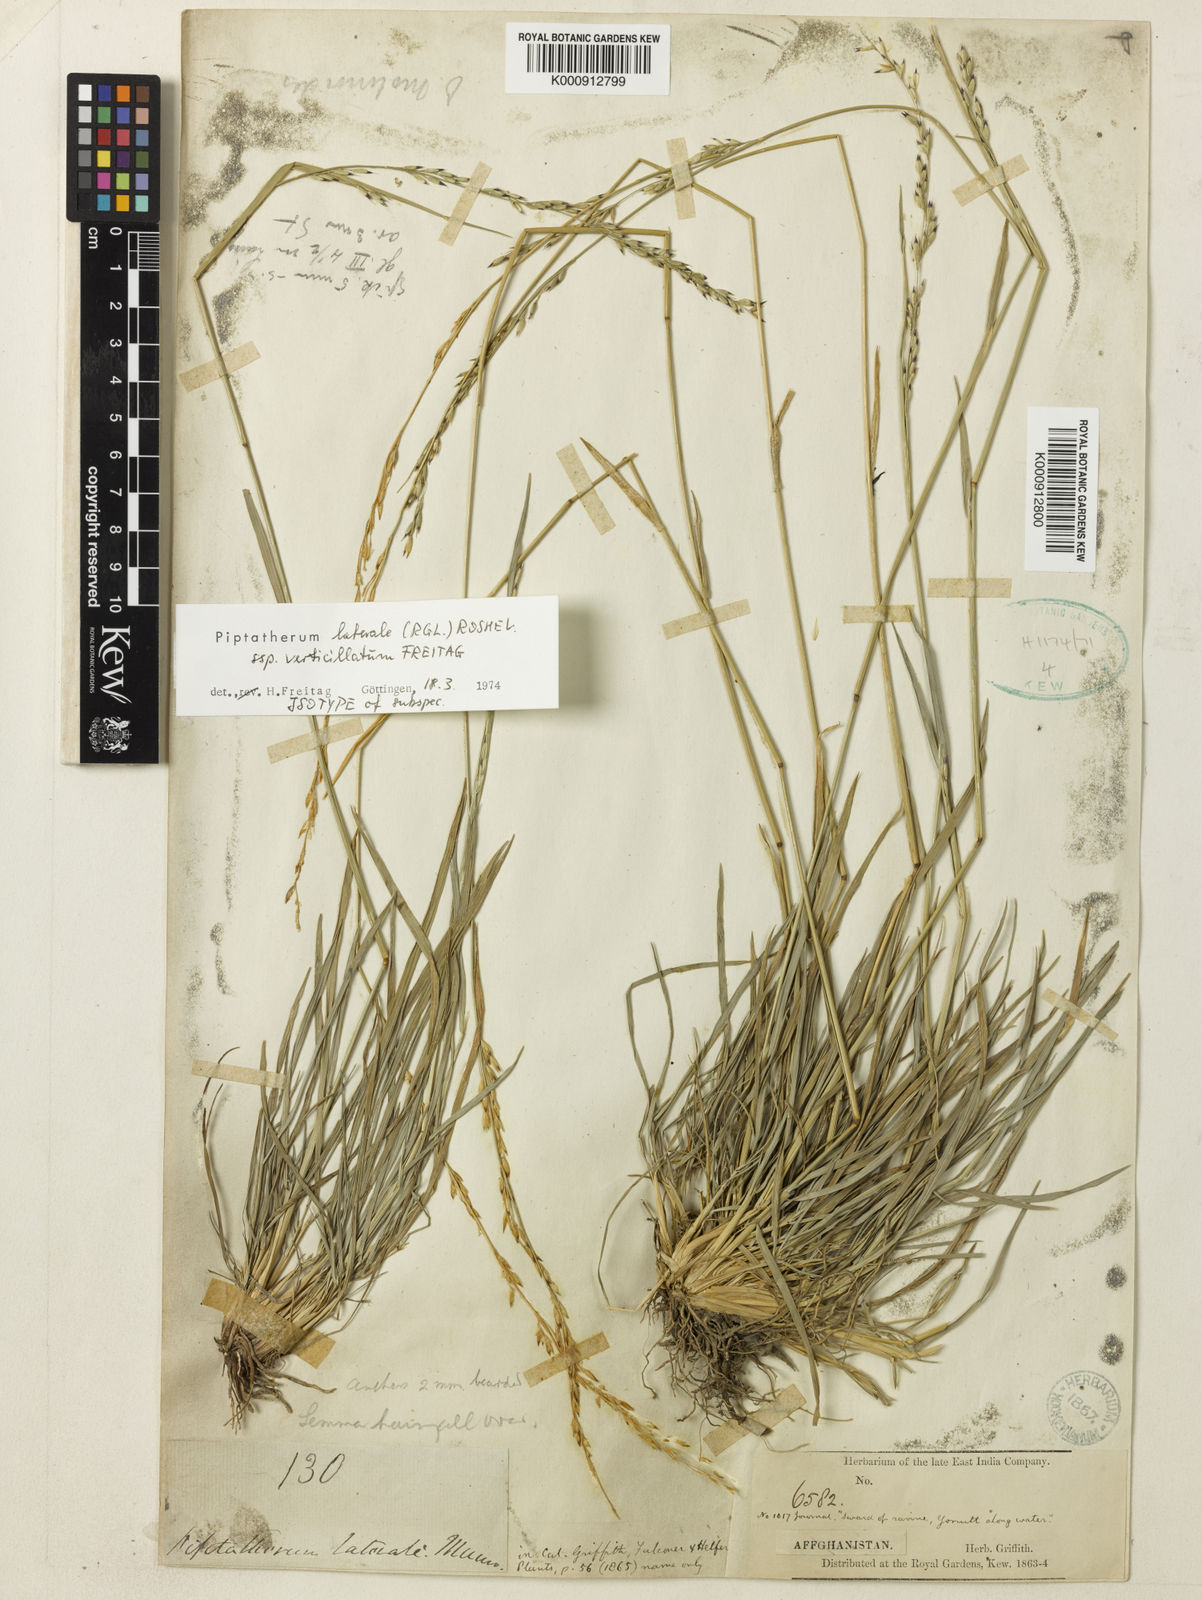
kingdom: Plantae
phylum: Tracheophyta
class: Liliopsida
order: Poales
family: Poaceae
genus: Piptatherum
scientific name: Piptatherum laterale
